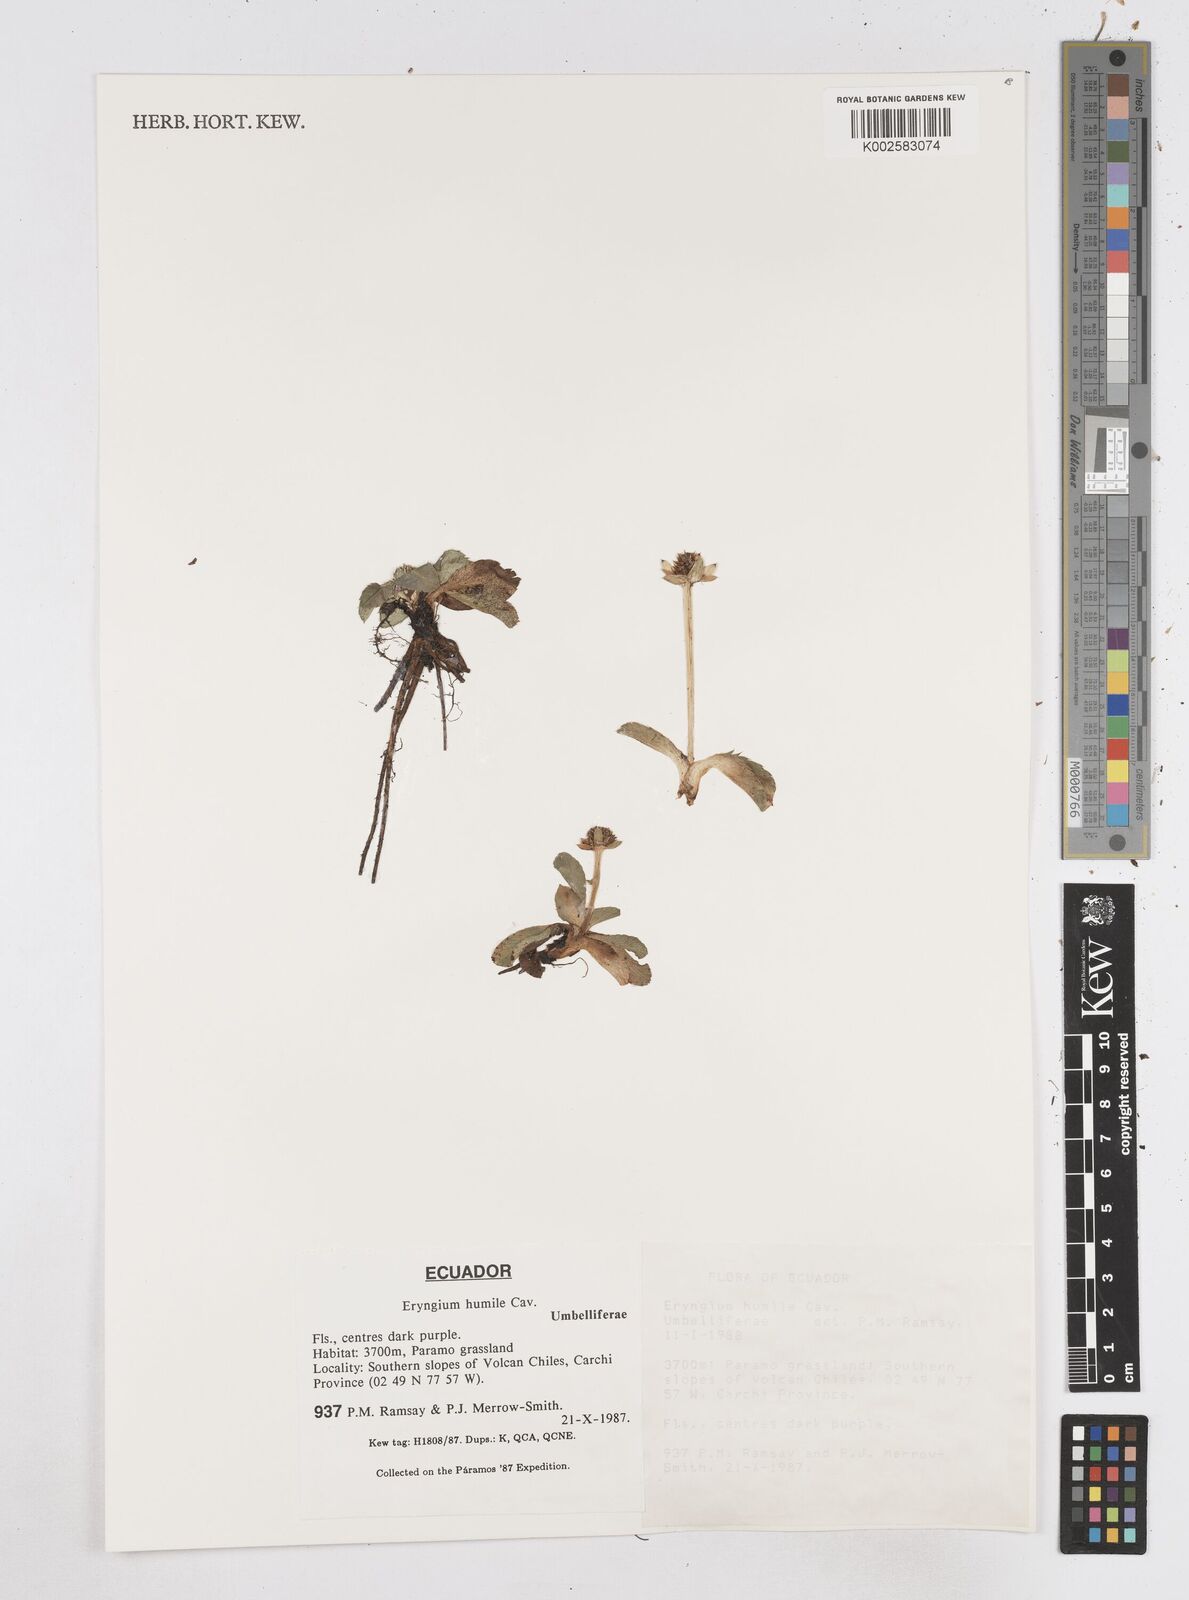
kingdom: Plantae
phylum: Tracheophyta
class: Magnoliopsida
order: Apiales
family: Apiaceae
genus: Eryngium
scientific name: Eryngium humile
